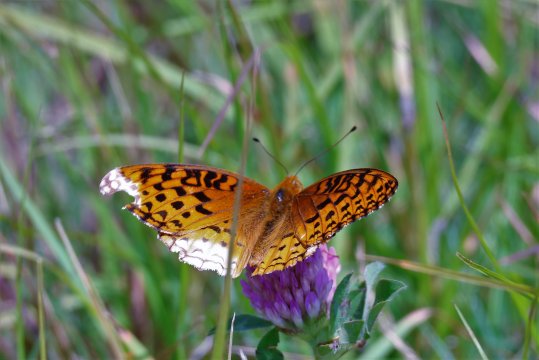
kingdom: Animalia
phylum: Arthropoda
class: Insecta
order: Lepidoptera
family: Nymphalidae
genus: Speyeria
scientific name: Speyeria cybele
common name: Great Spangled Fritillary
